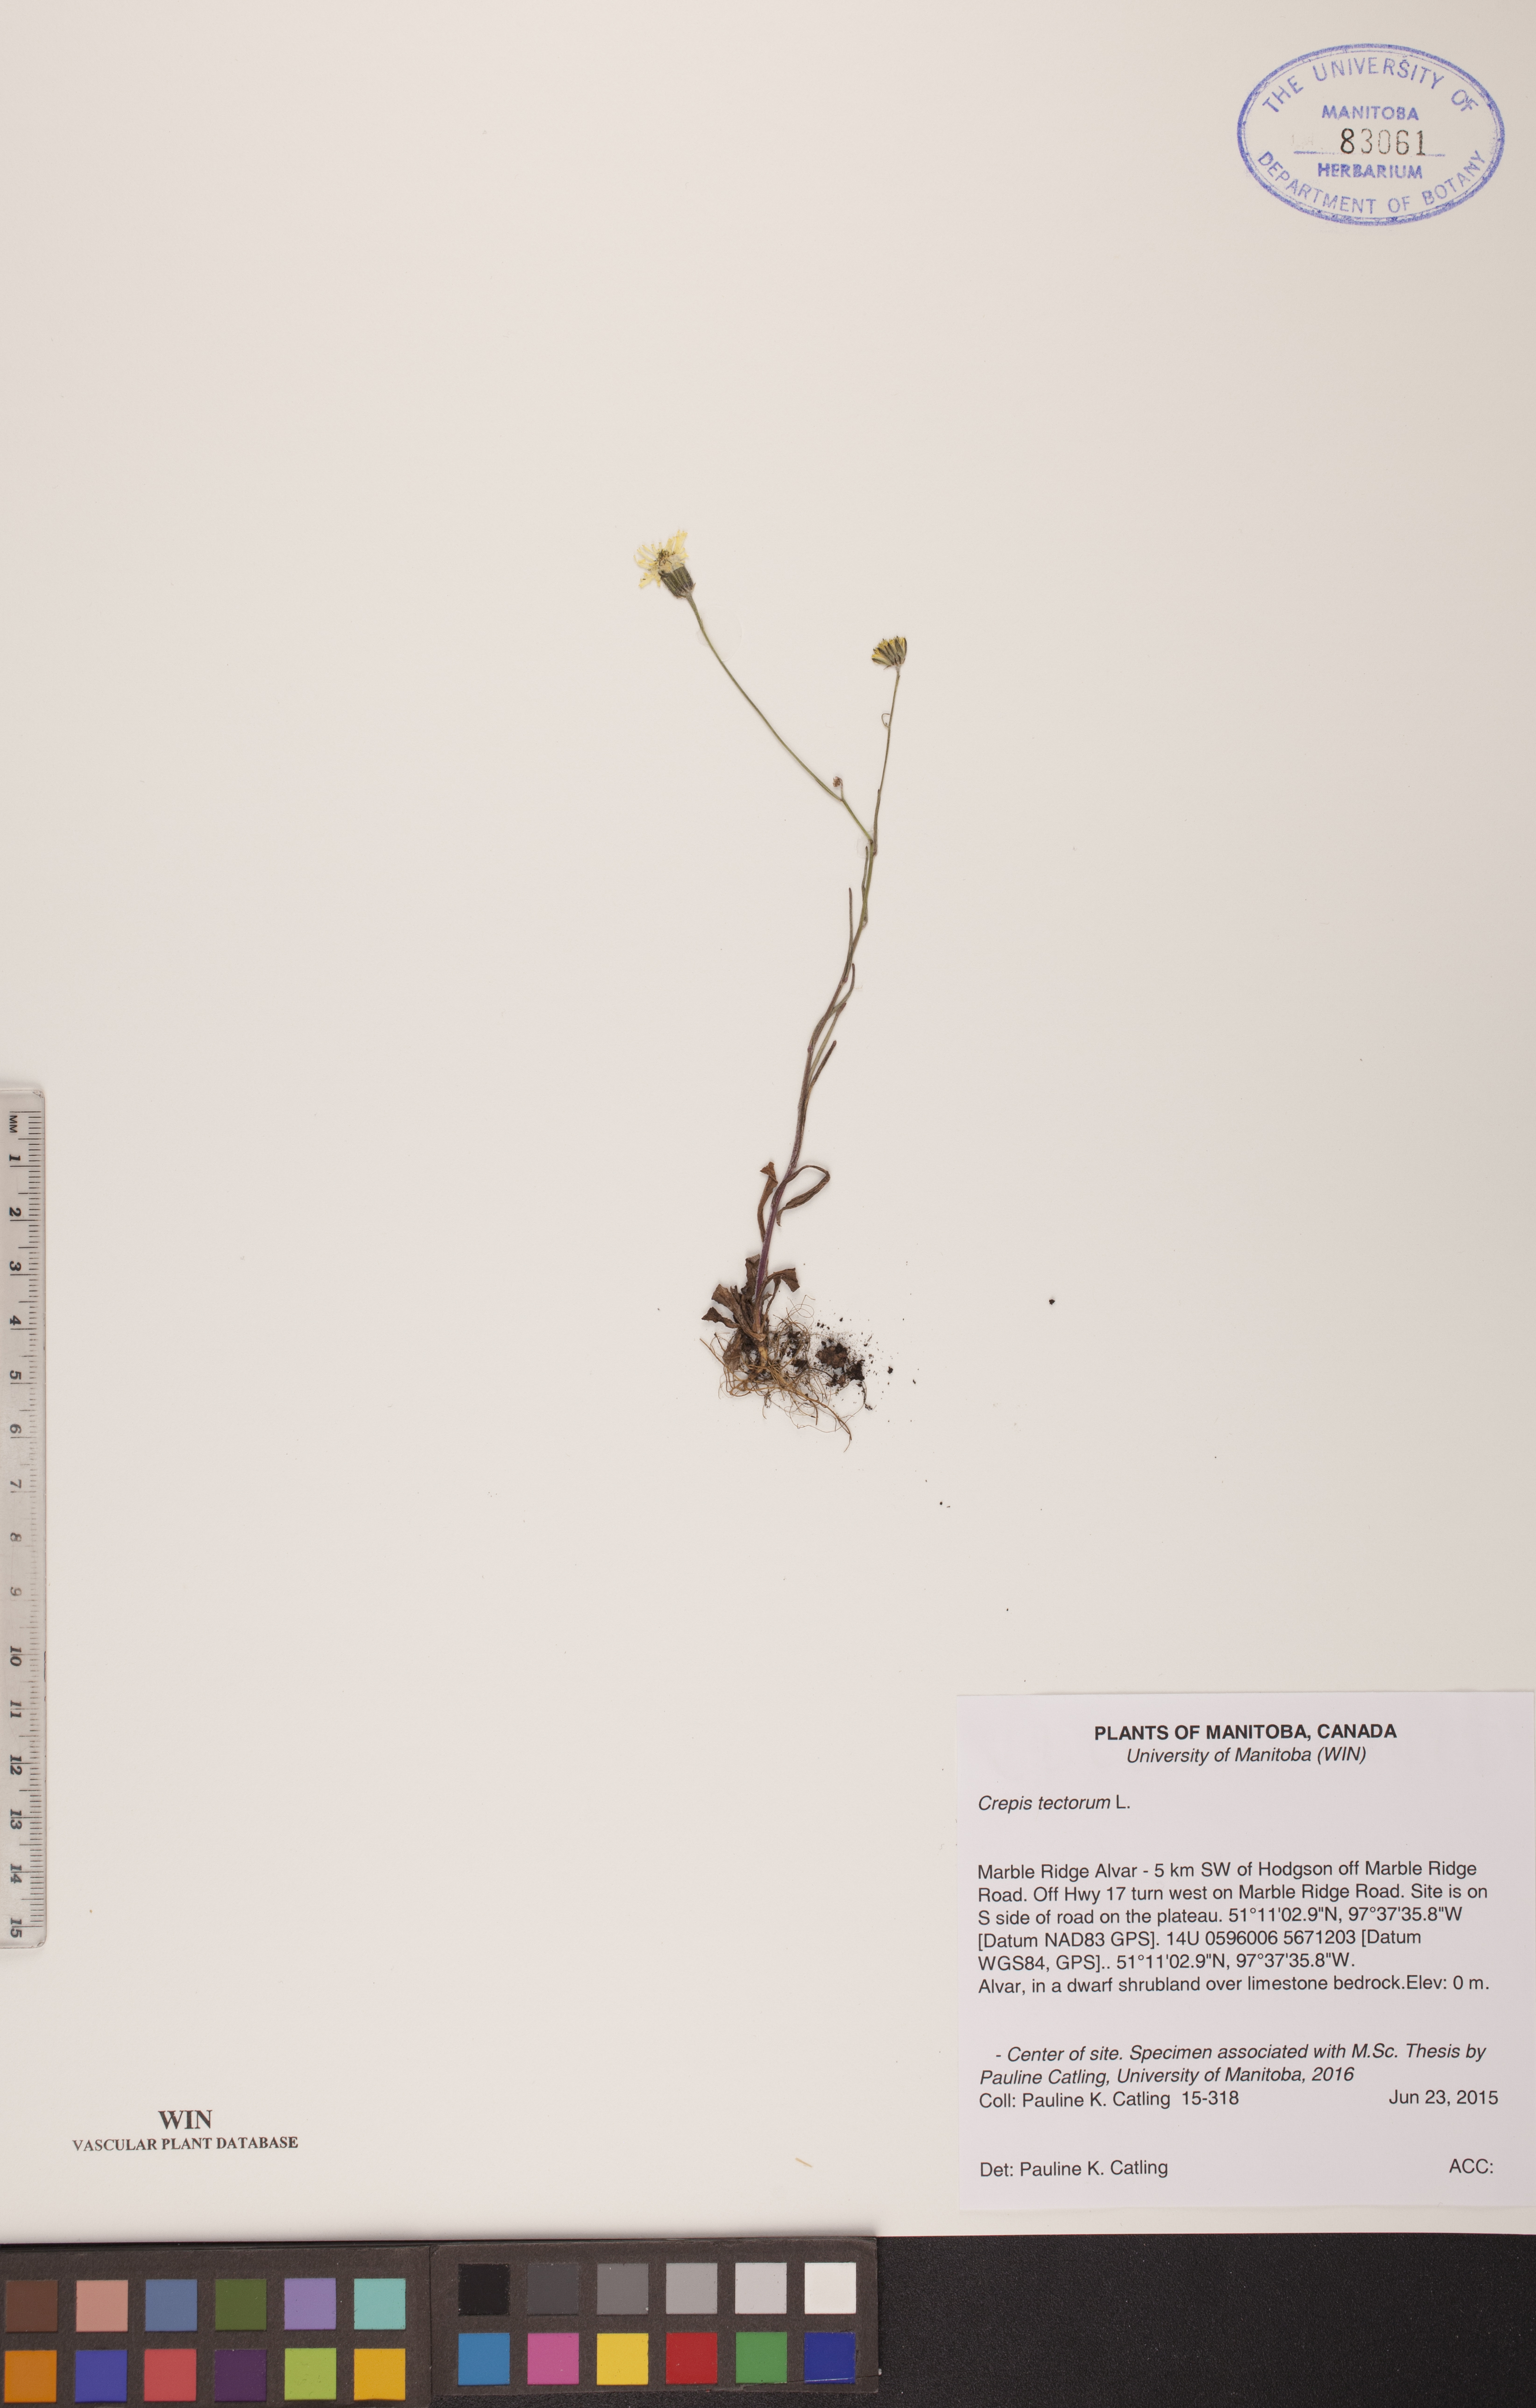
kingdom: Plantae
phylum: Tracheophyta
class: Magnoliopsida
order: Asterales
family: Asteraceae
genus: Crepis
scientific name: Crepis tectorum
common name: Narrow-leaved hawk's-beard
